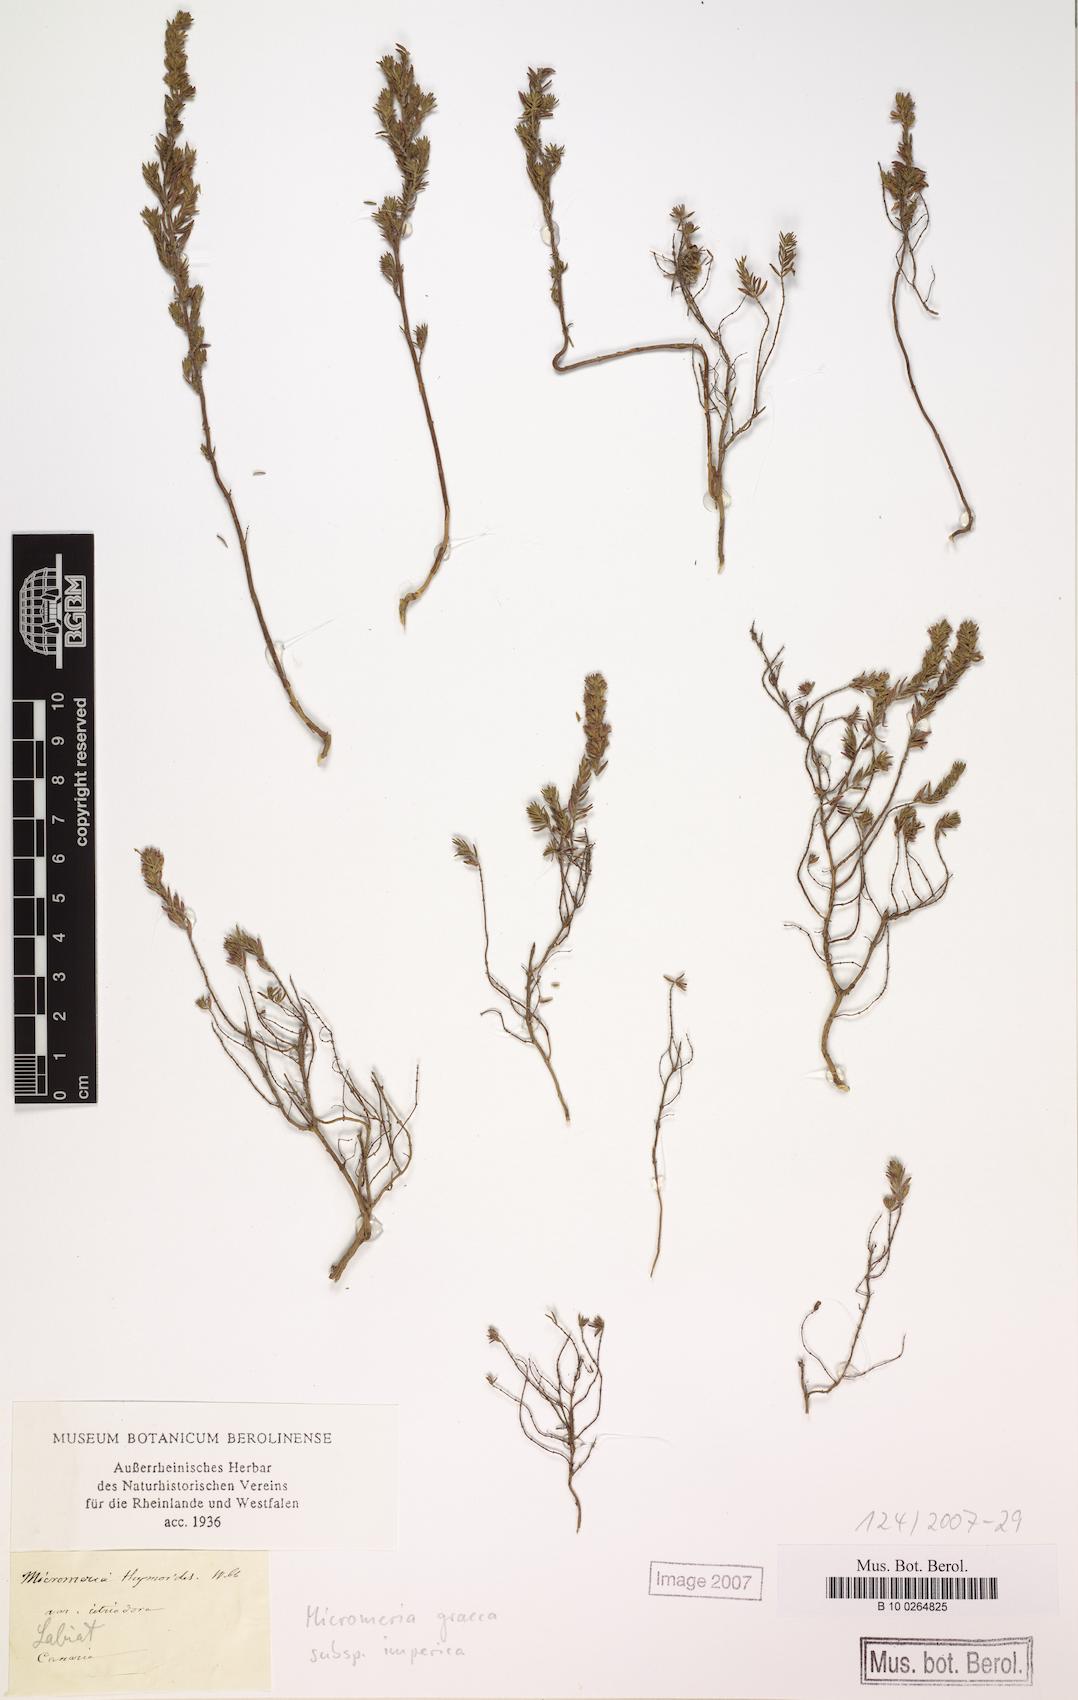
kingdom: Plantae
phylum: Tracheophyta
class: Magnoliopsida
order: Lamiales
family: Lamiaceae
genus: Micromeria
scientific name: Micromeria graeca
